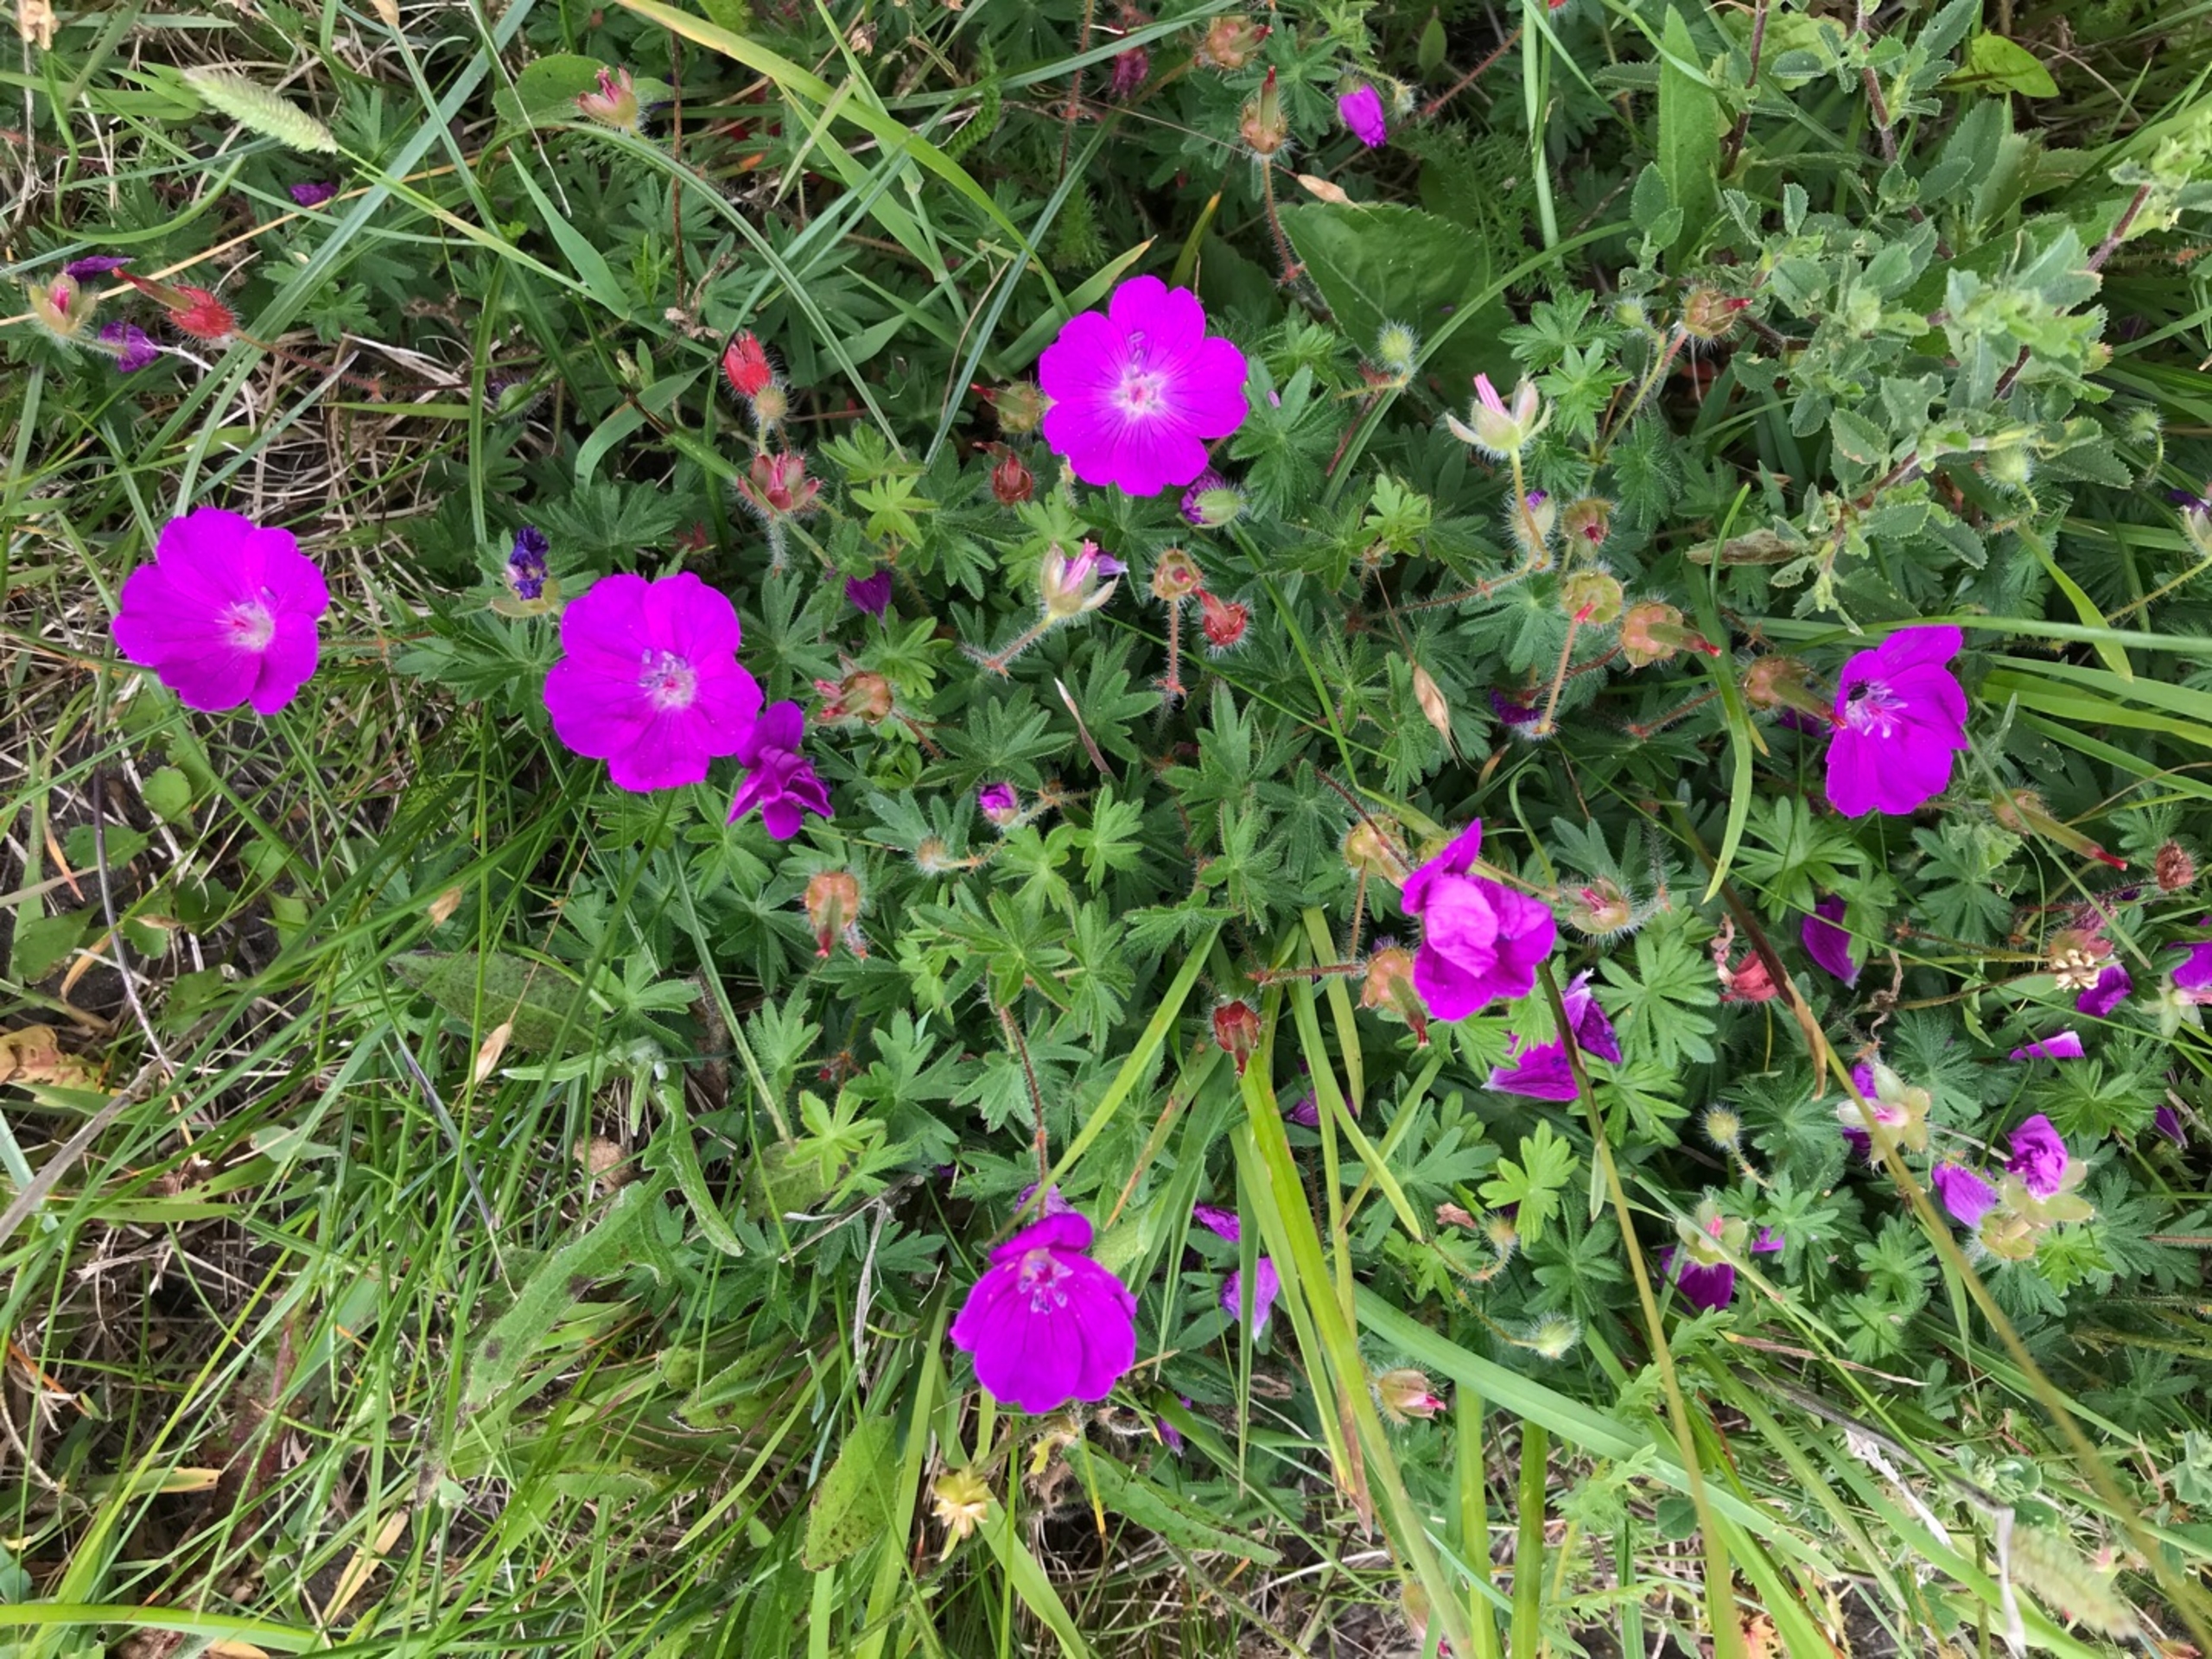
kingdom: Plantae
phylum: Tracheophyta
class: Magnoliopsida
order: Geraniales
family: Geraniaceae
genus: Geranium
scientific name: Geranium sanguineum
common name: Blodrød storkenæb
